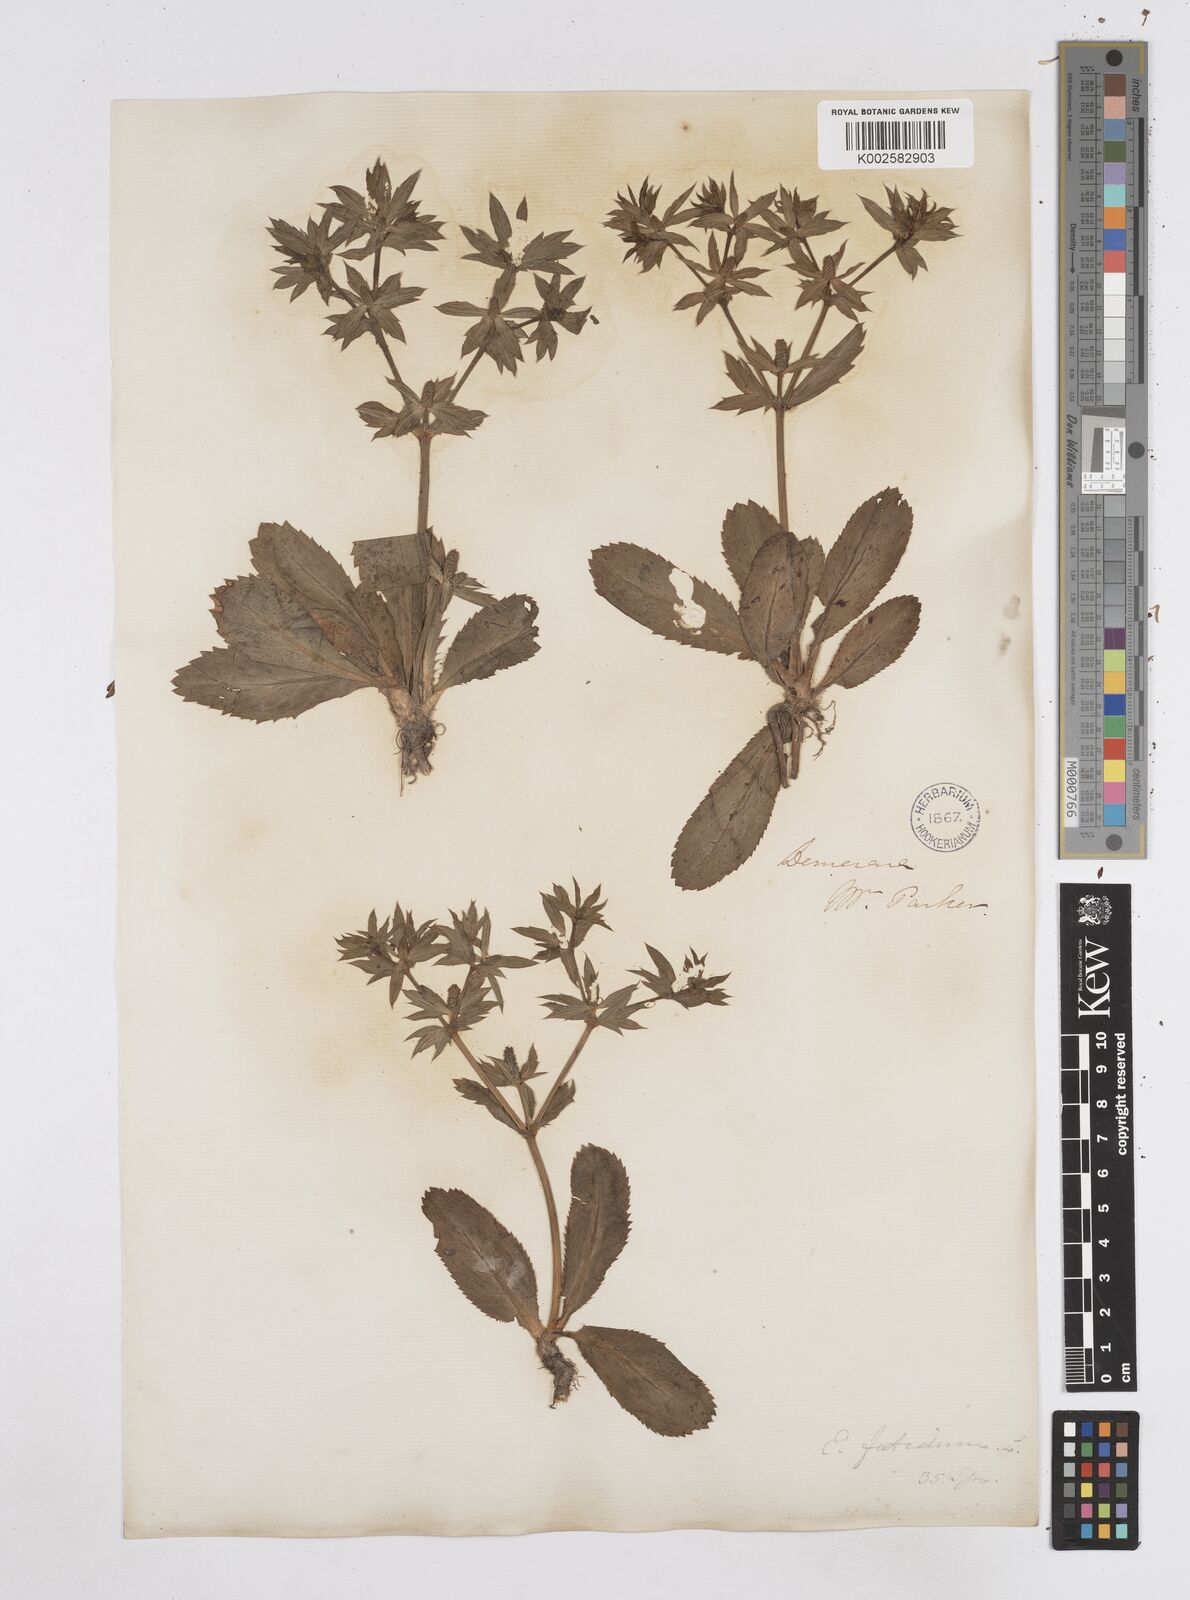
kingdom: Plantae
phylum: Tracheophyta
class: Magnoliopsida
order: Apiales
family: Apiaceae
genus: Eryngium
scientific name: Eryngium foetidum
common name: Fitweed
